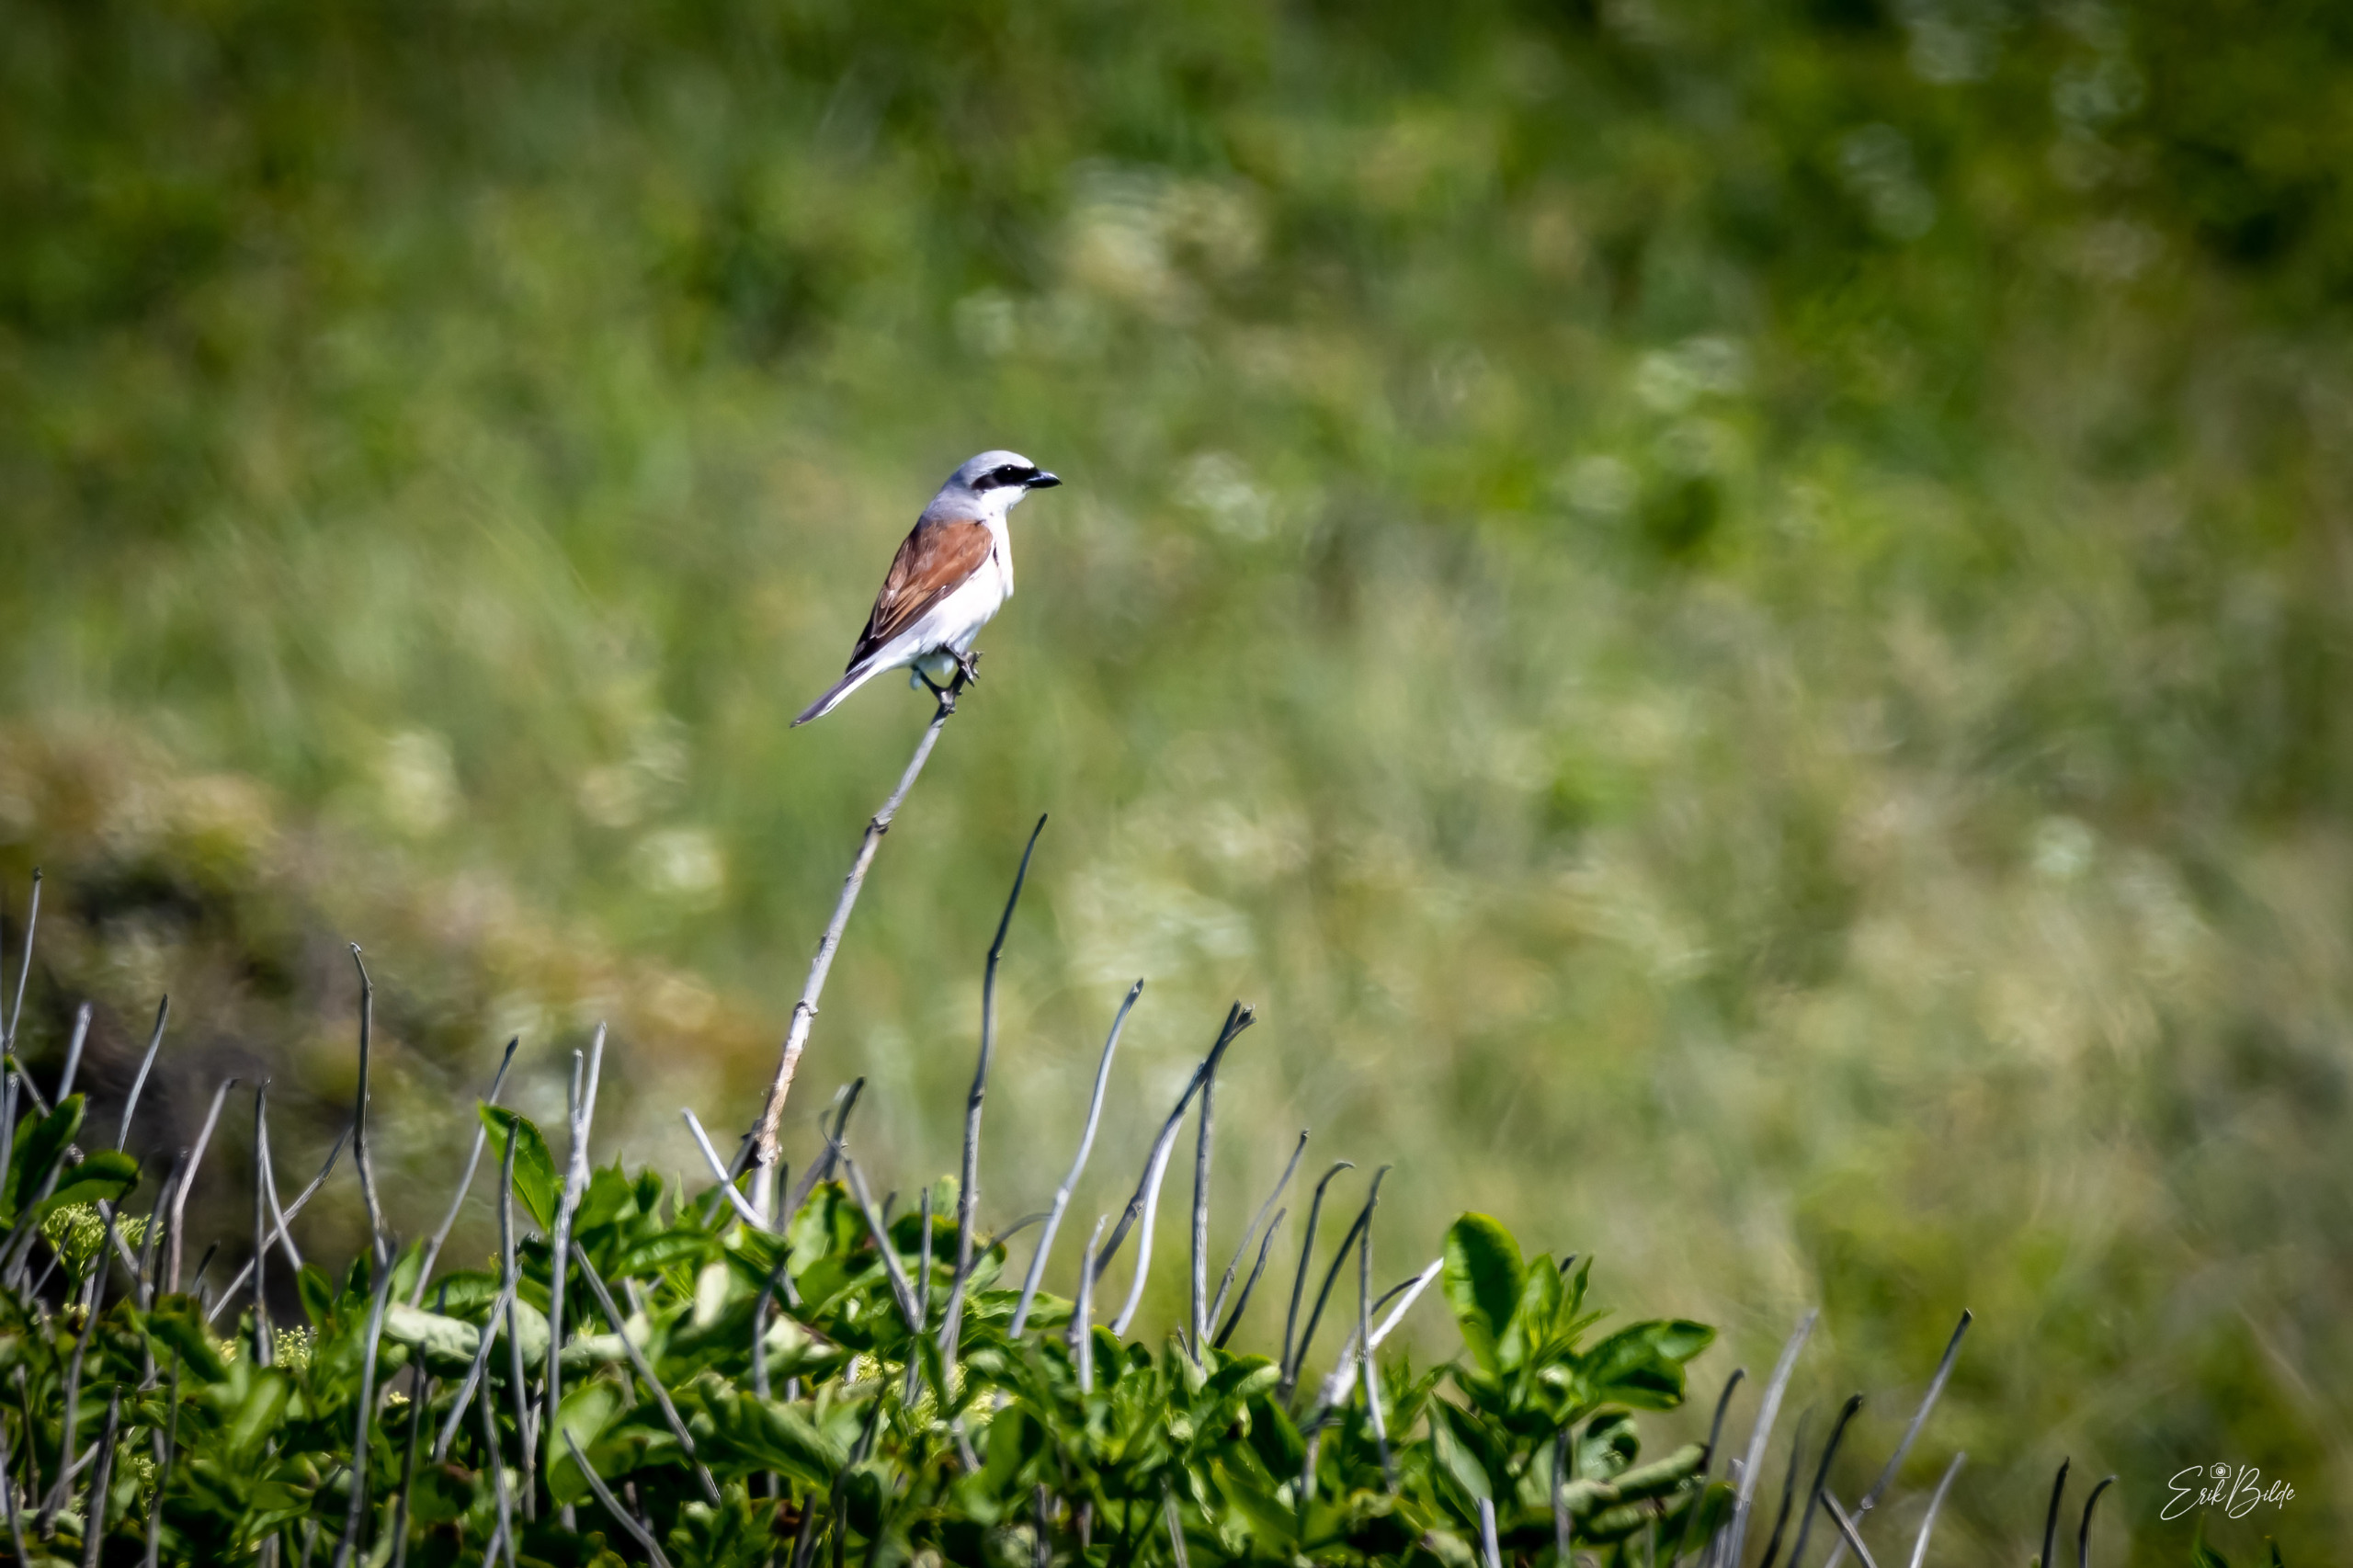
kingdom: Animalia
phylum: Chordata
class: Aves
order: Passeriformes
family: Laniidae
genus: Lanius
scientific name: Lanius collurio
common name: Rødrygget tornskade
